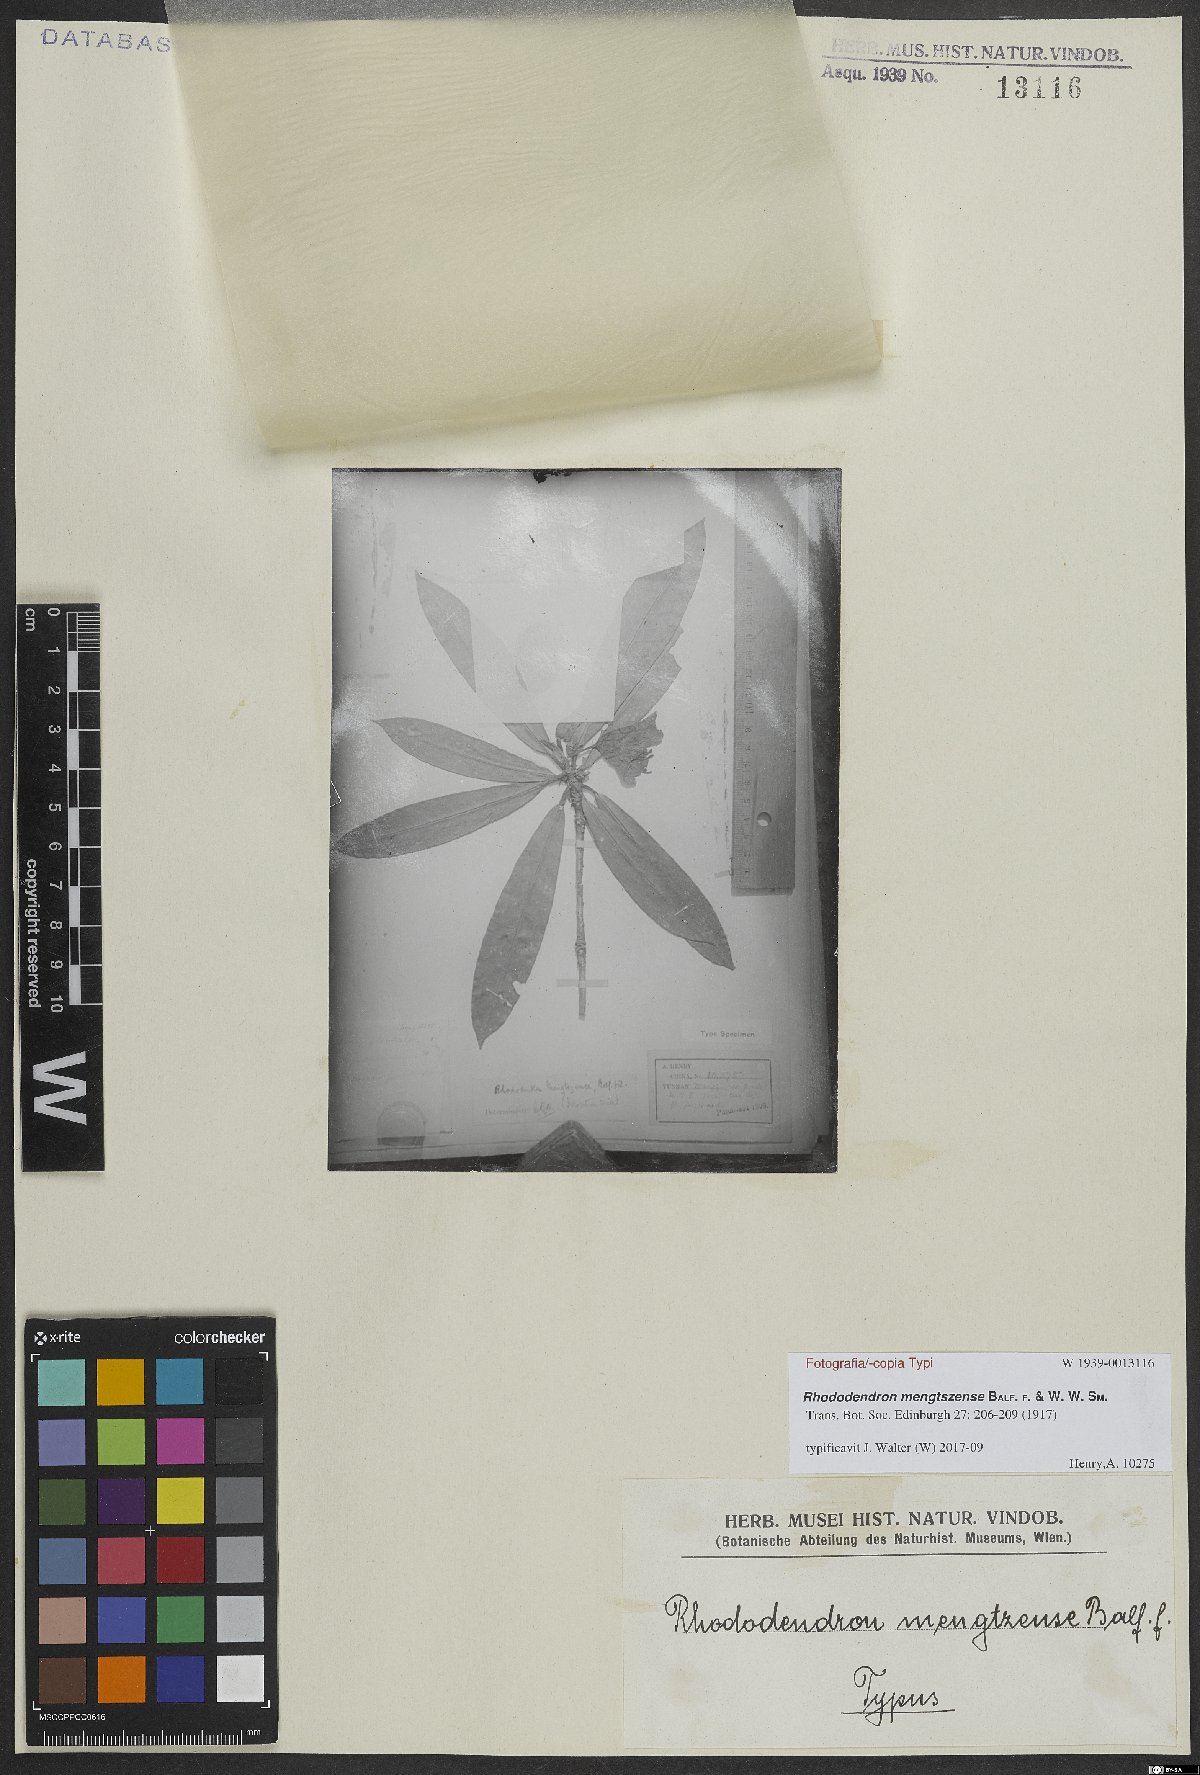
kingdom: Plantae
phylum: Tracheophyta
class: Magnoliopsida
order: Ericales
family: Ericaceae
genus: Rhododendron
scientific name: Rhododendron mengtszense
